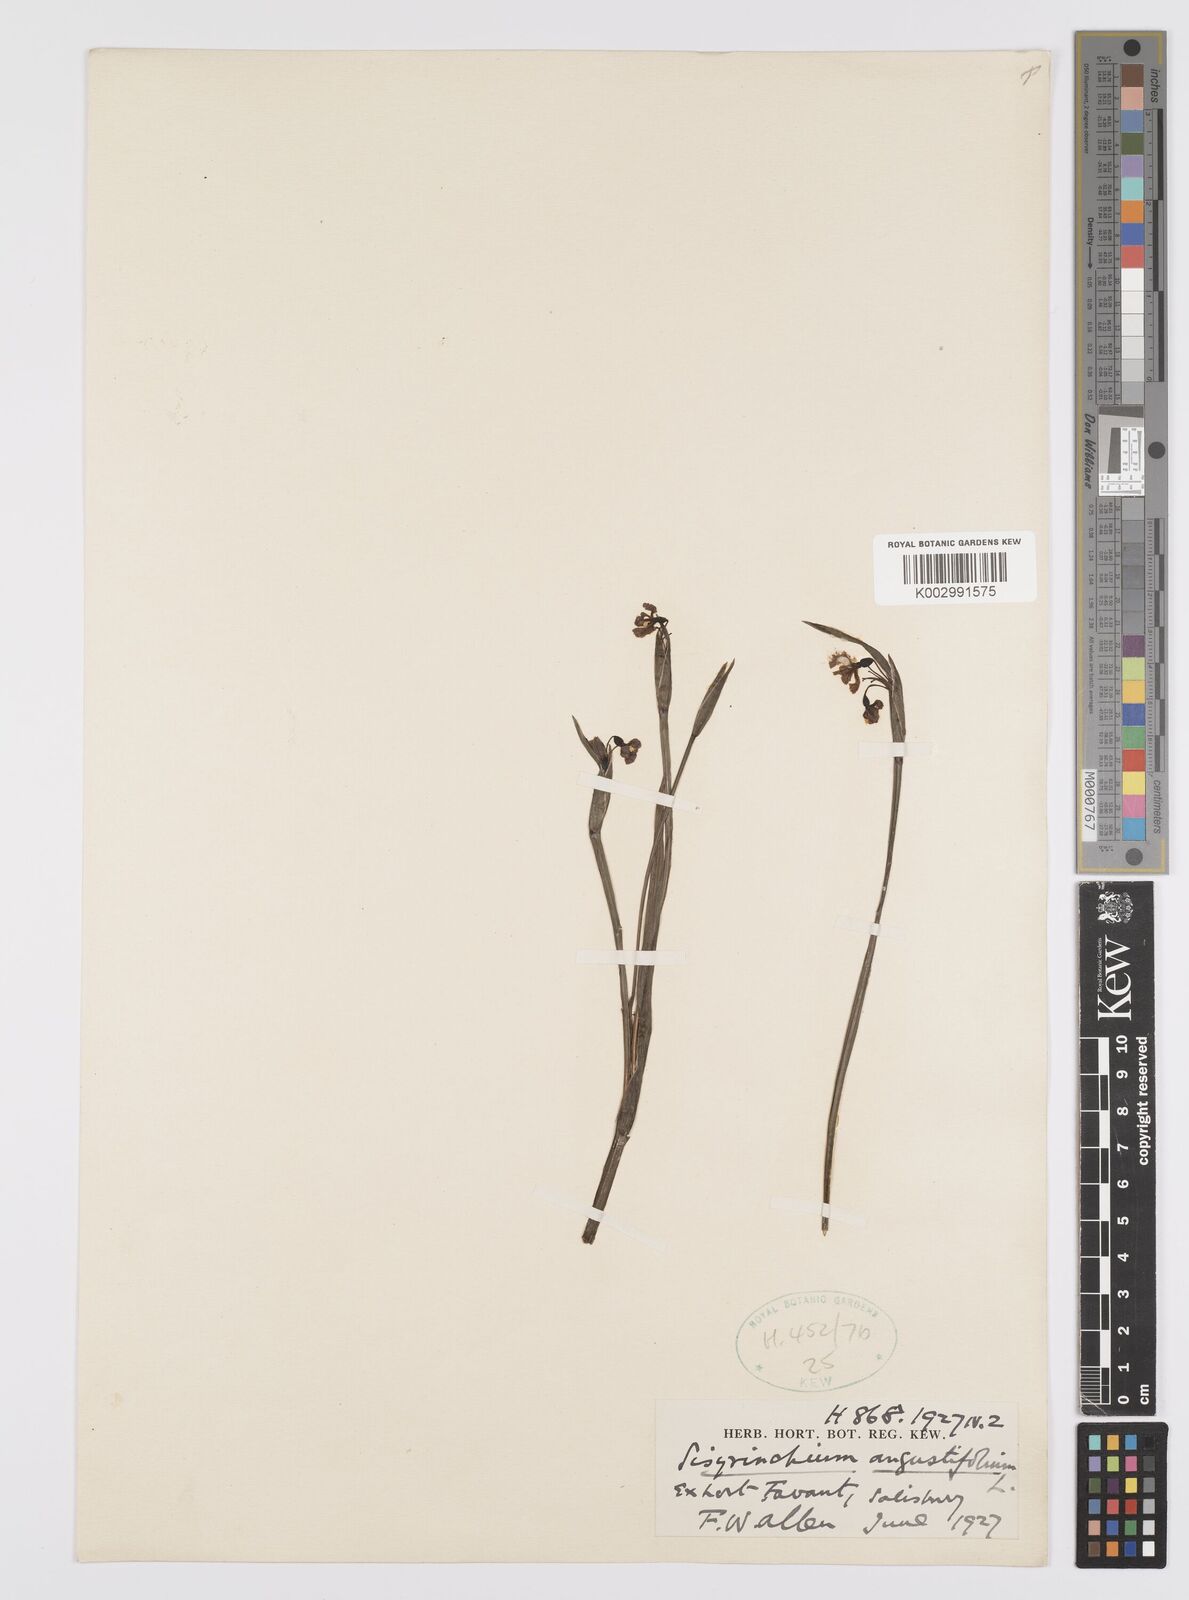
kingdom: Plantae
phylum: Tracheophyta
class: Liliopsida
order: Asparagales
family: Iridaceae
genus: Sisyrinchium
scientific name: Sisyrinchium angustifolium
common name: Narrow-leaf blue-eyed-grass
